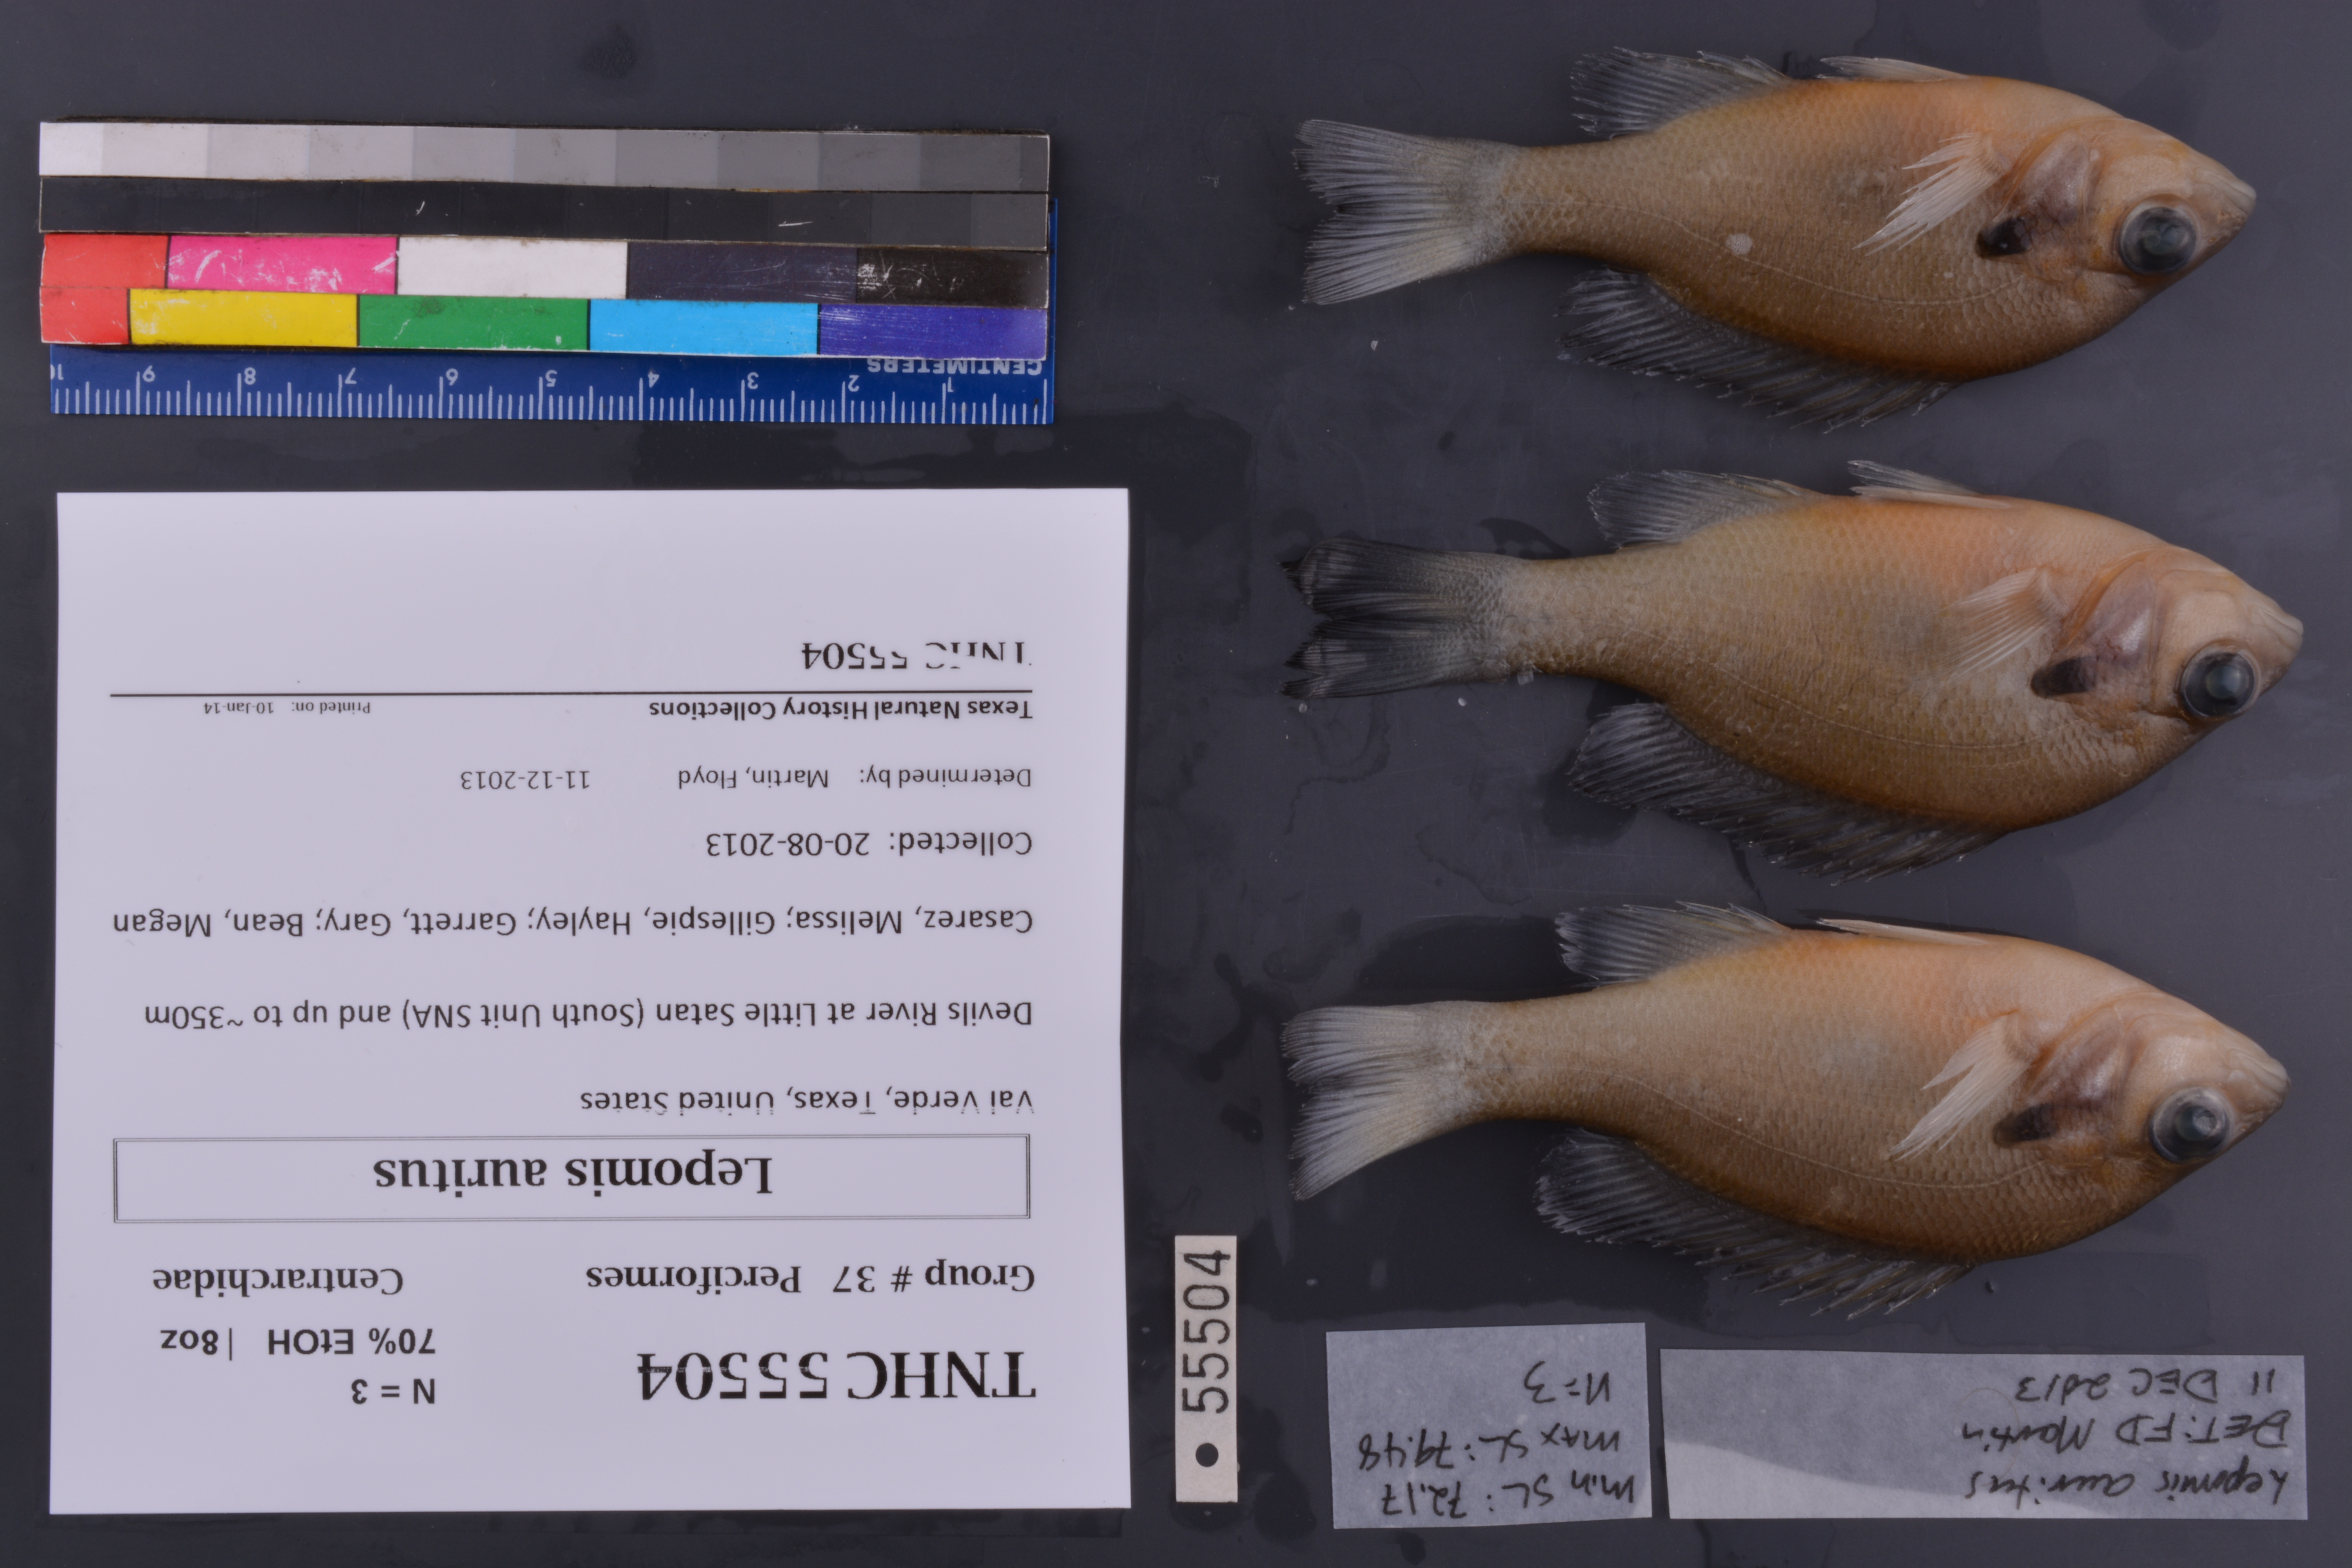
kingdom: Animalia
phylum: Chordata
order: Perciformes
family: Centrarchidae
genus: Lepomis
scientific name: Lepomis auritus
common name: Redbreast sunfish
